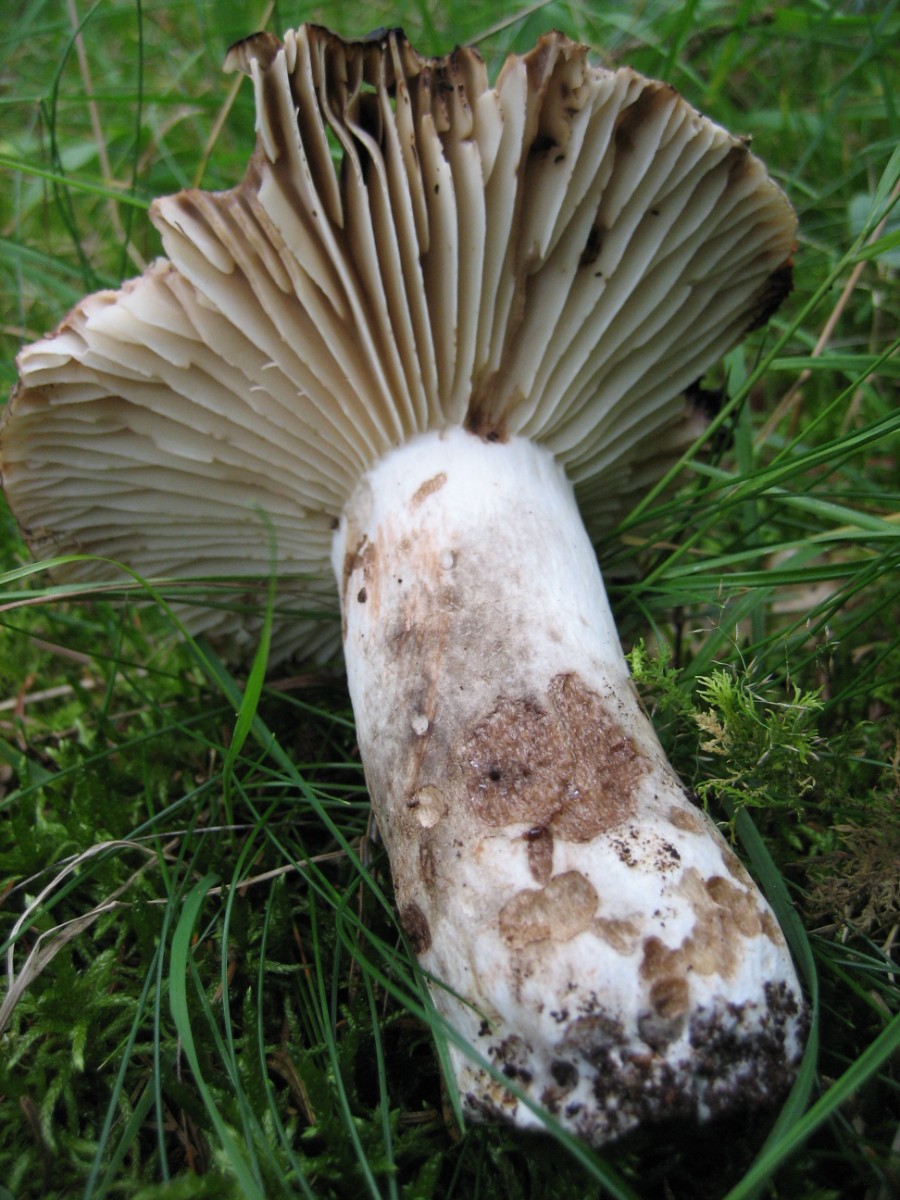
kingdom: Fungi
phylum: Basidiomycota
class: Agaricomycetes
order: Russulales
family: Russulaceae
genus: Russula
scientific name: Russula adusta
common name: sværtende skørhat
